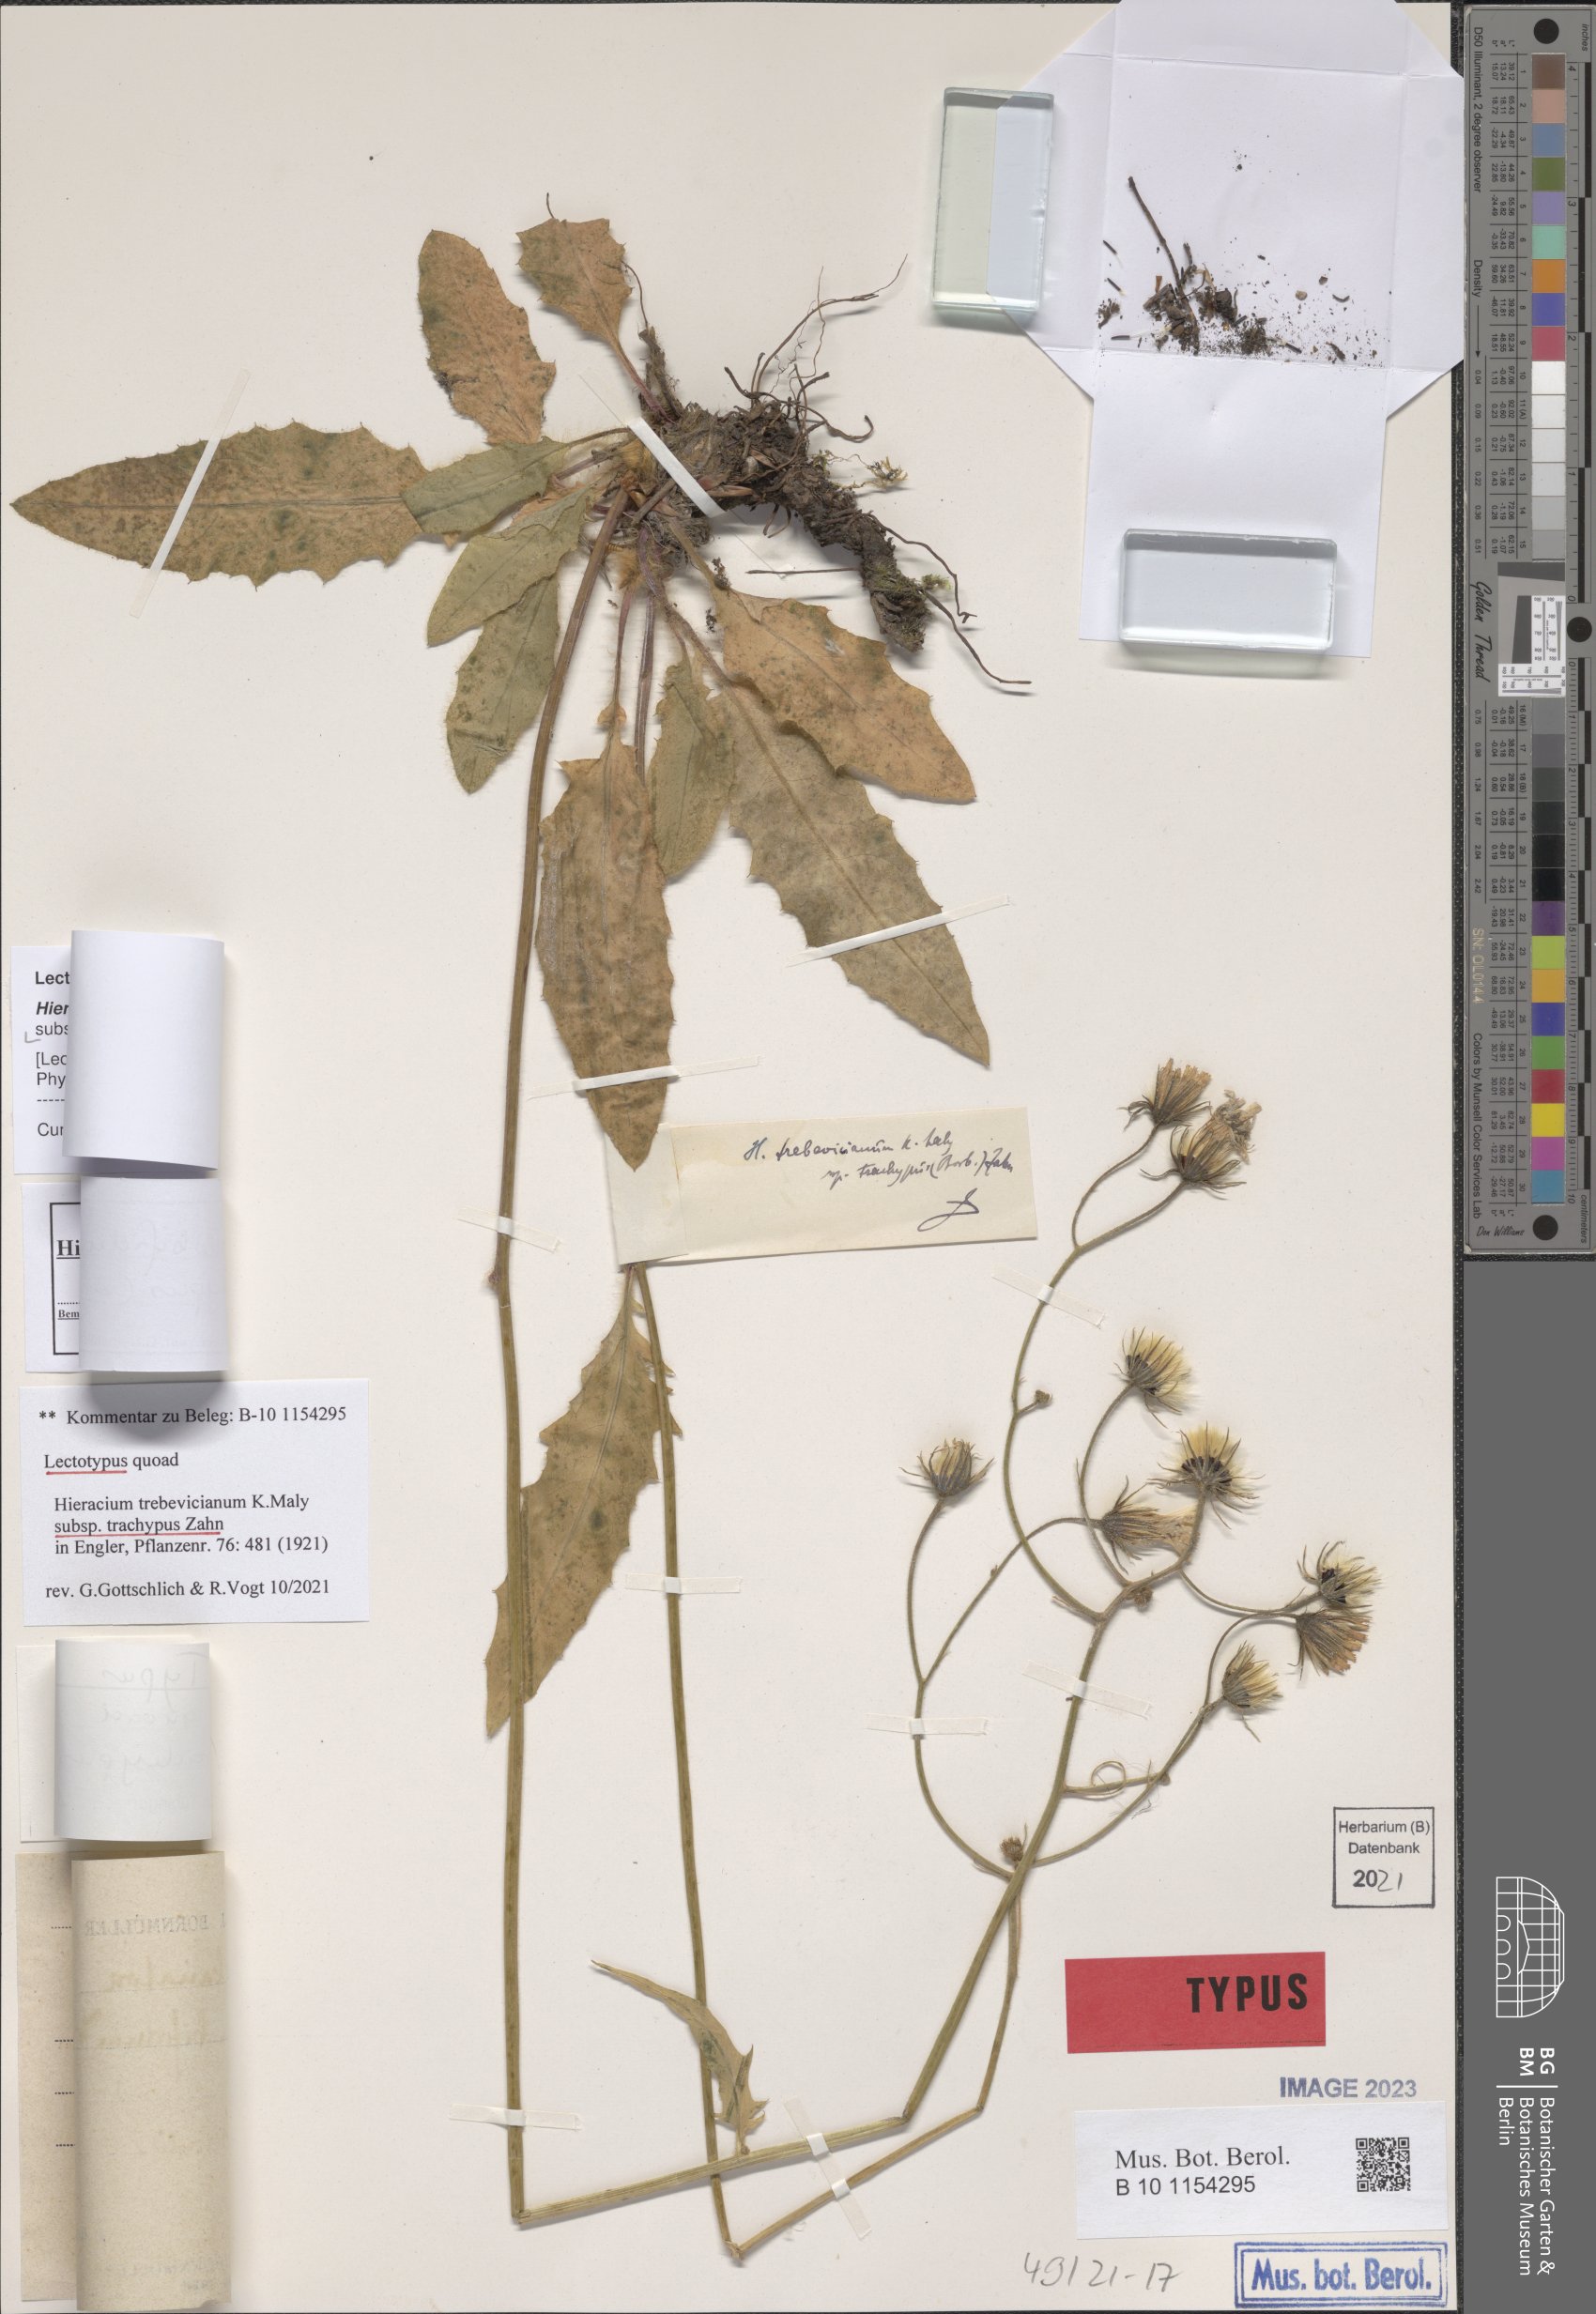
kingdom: Plantae
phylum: Tracheophyta
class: Magnoliopsida
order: Asterales
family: Asteraceae
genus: Hieracium
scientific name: Hieracium trebevicianum
